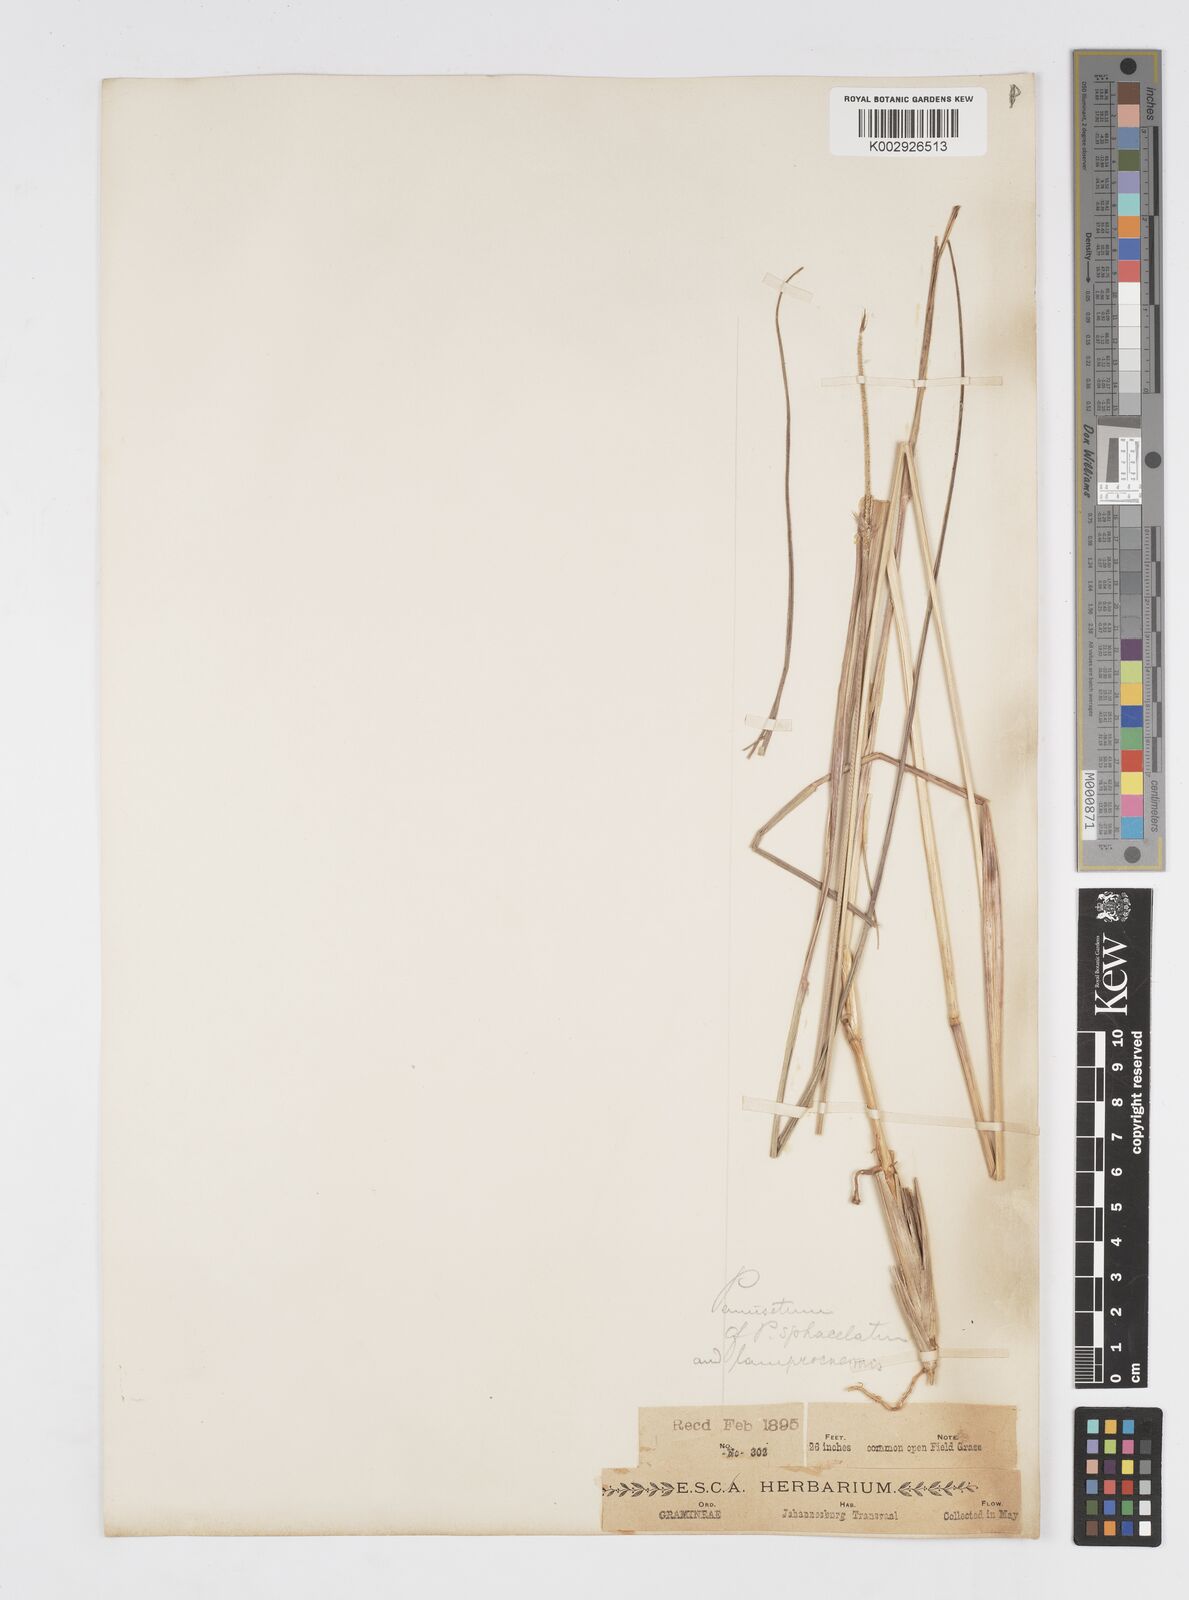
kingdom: Plantae
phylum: Tracheophyta
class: Liliopsida
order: Poales
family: Poaceae
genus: Cenchrus
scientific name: Cenchrus sphacelatus
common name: Bulgras
